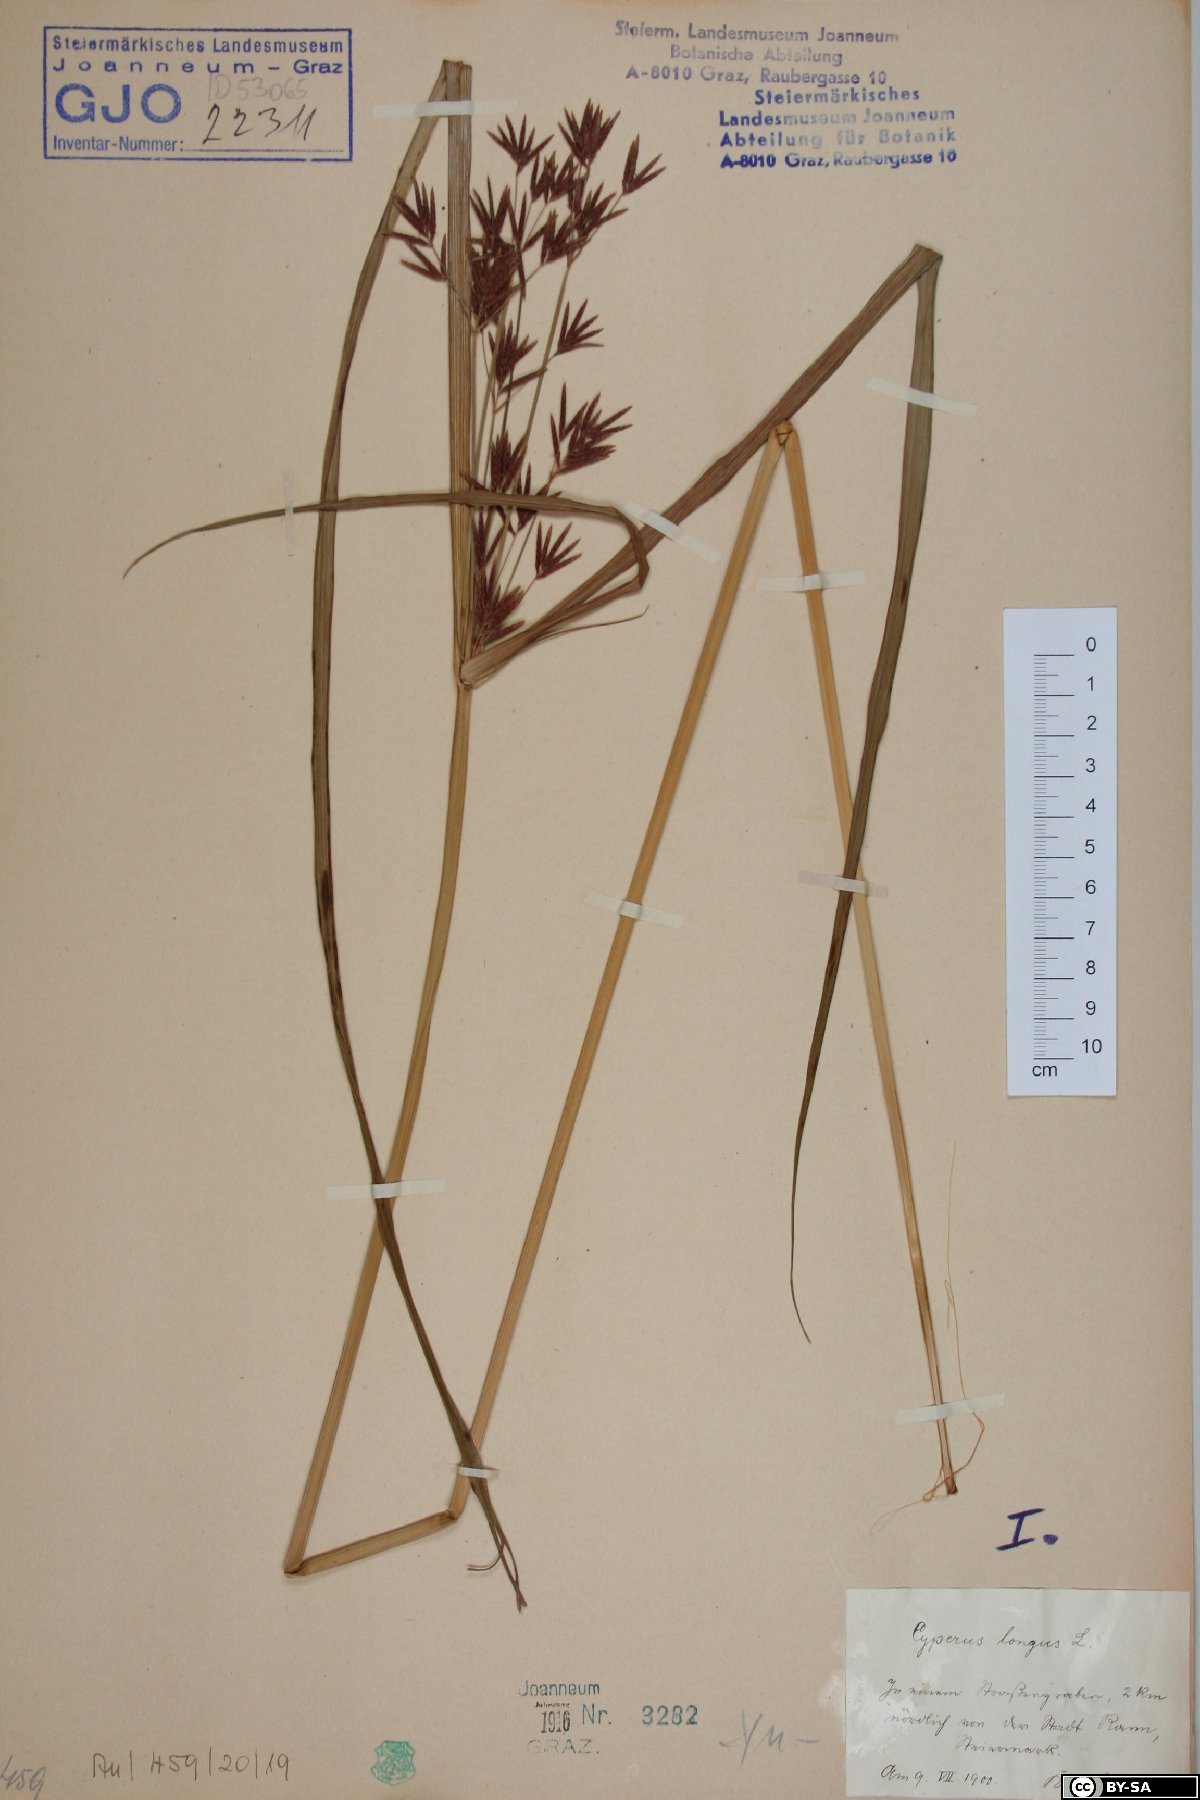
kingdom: Plantae
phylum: Tracheophyta
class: Liliopsida
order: Poales
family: Cyperaceae
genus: Cyperus
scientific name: Cyperus longus
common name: Galingale
